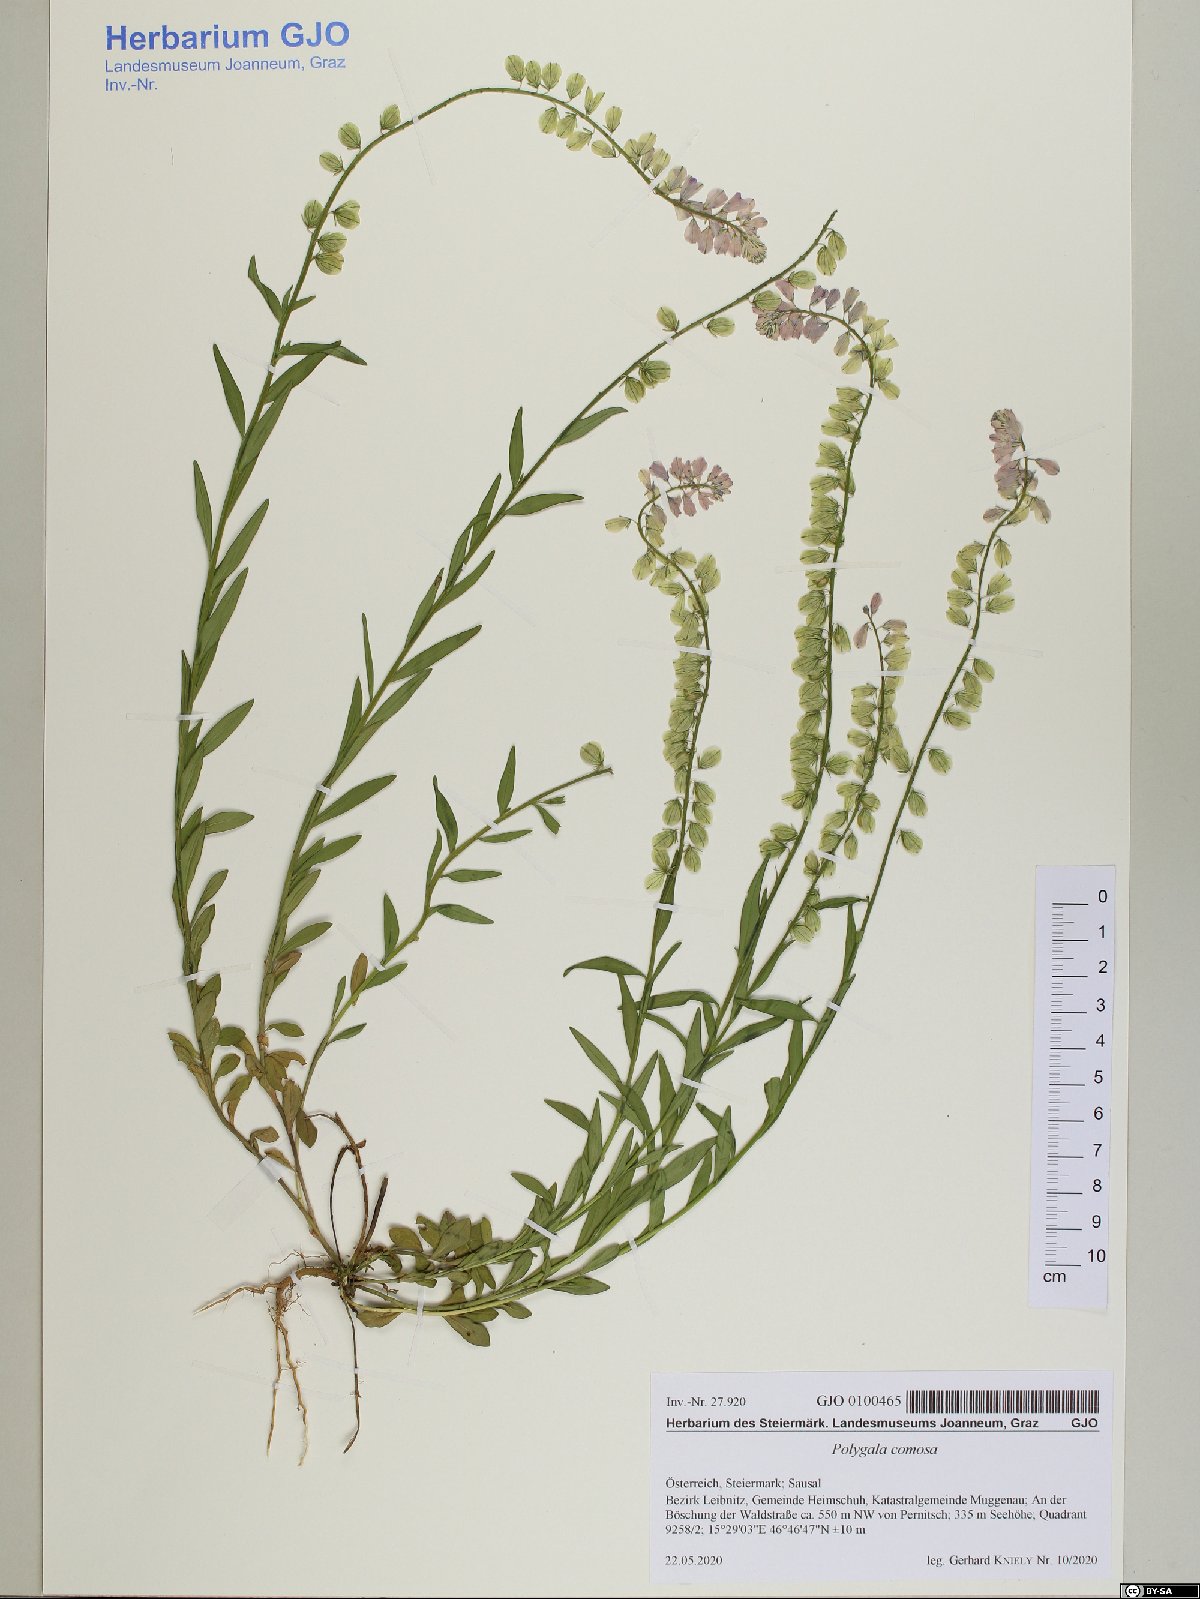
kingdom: Plantae
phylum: Tracheophyta
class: Magnoliopsida
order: Fabales
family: Polygalaceae
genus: Polygala
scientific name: Polygala comosa
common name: Tufted milkwort
